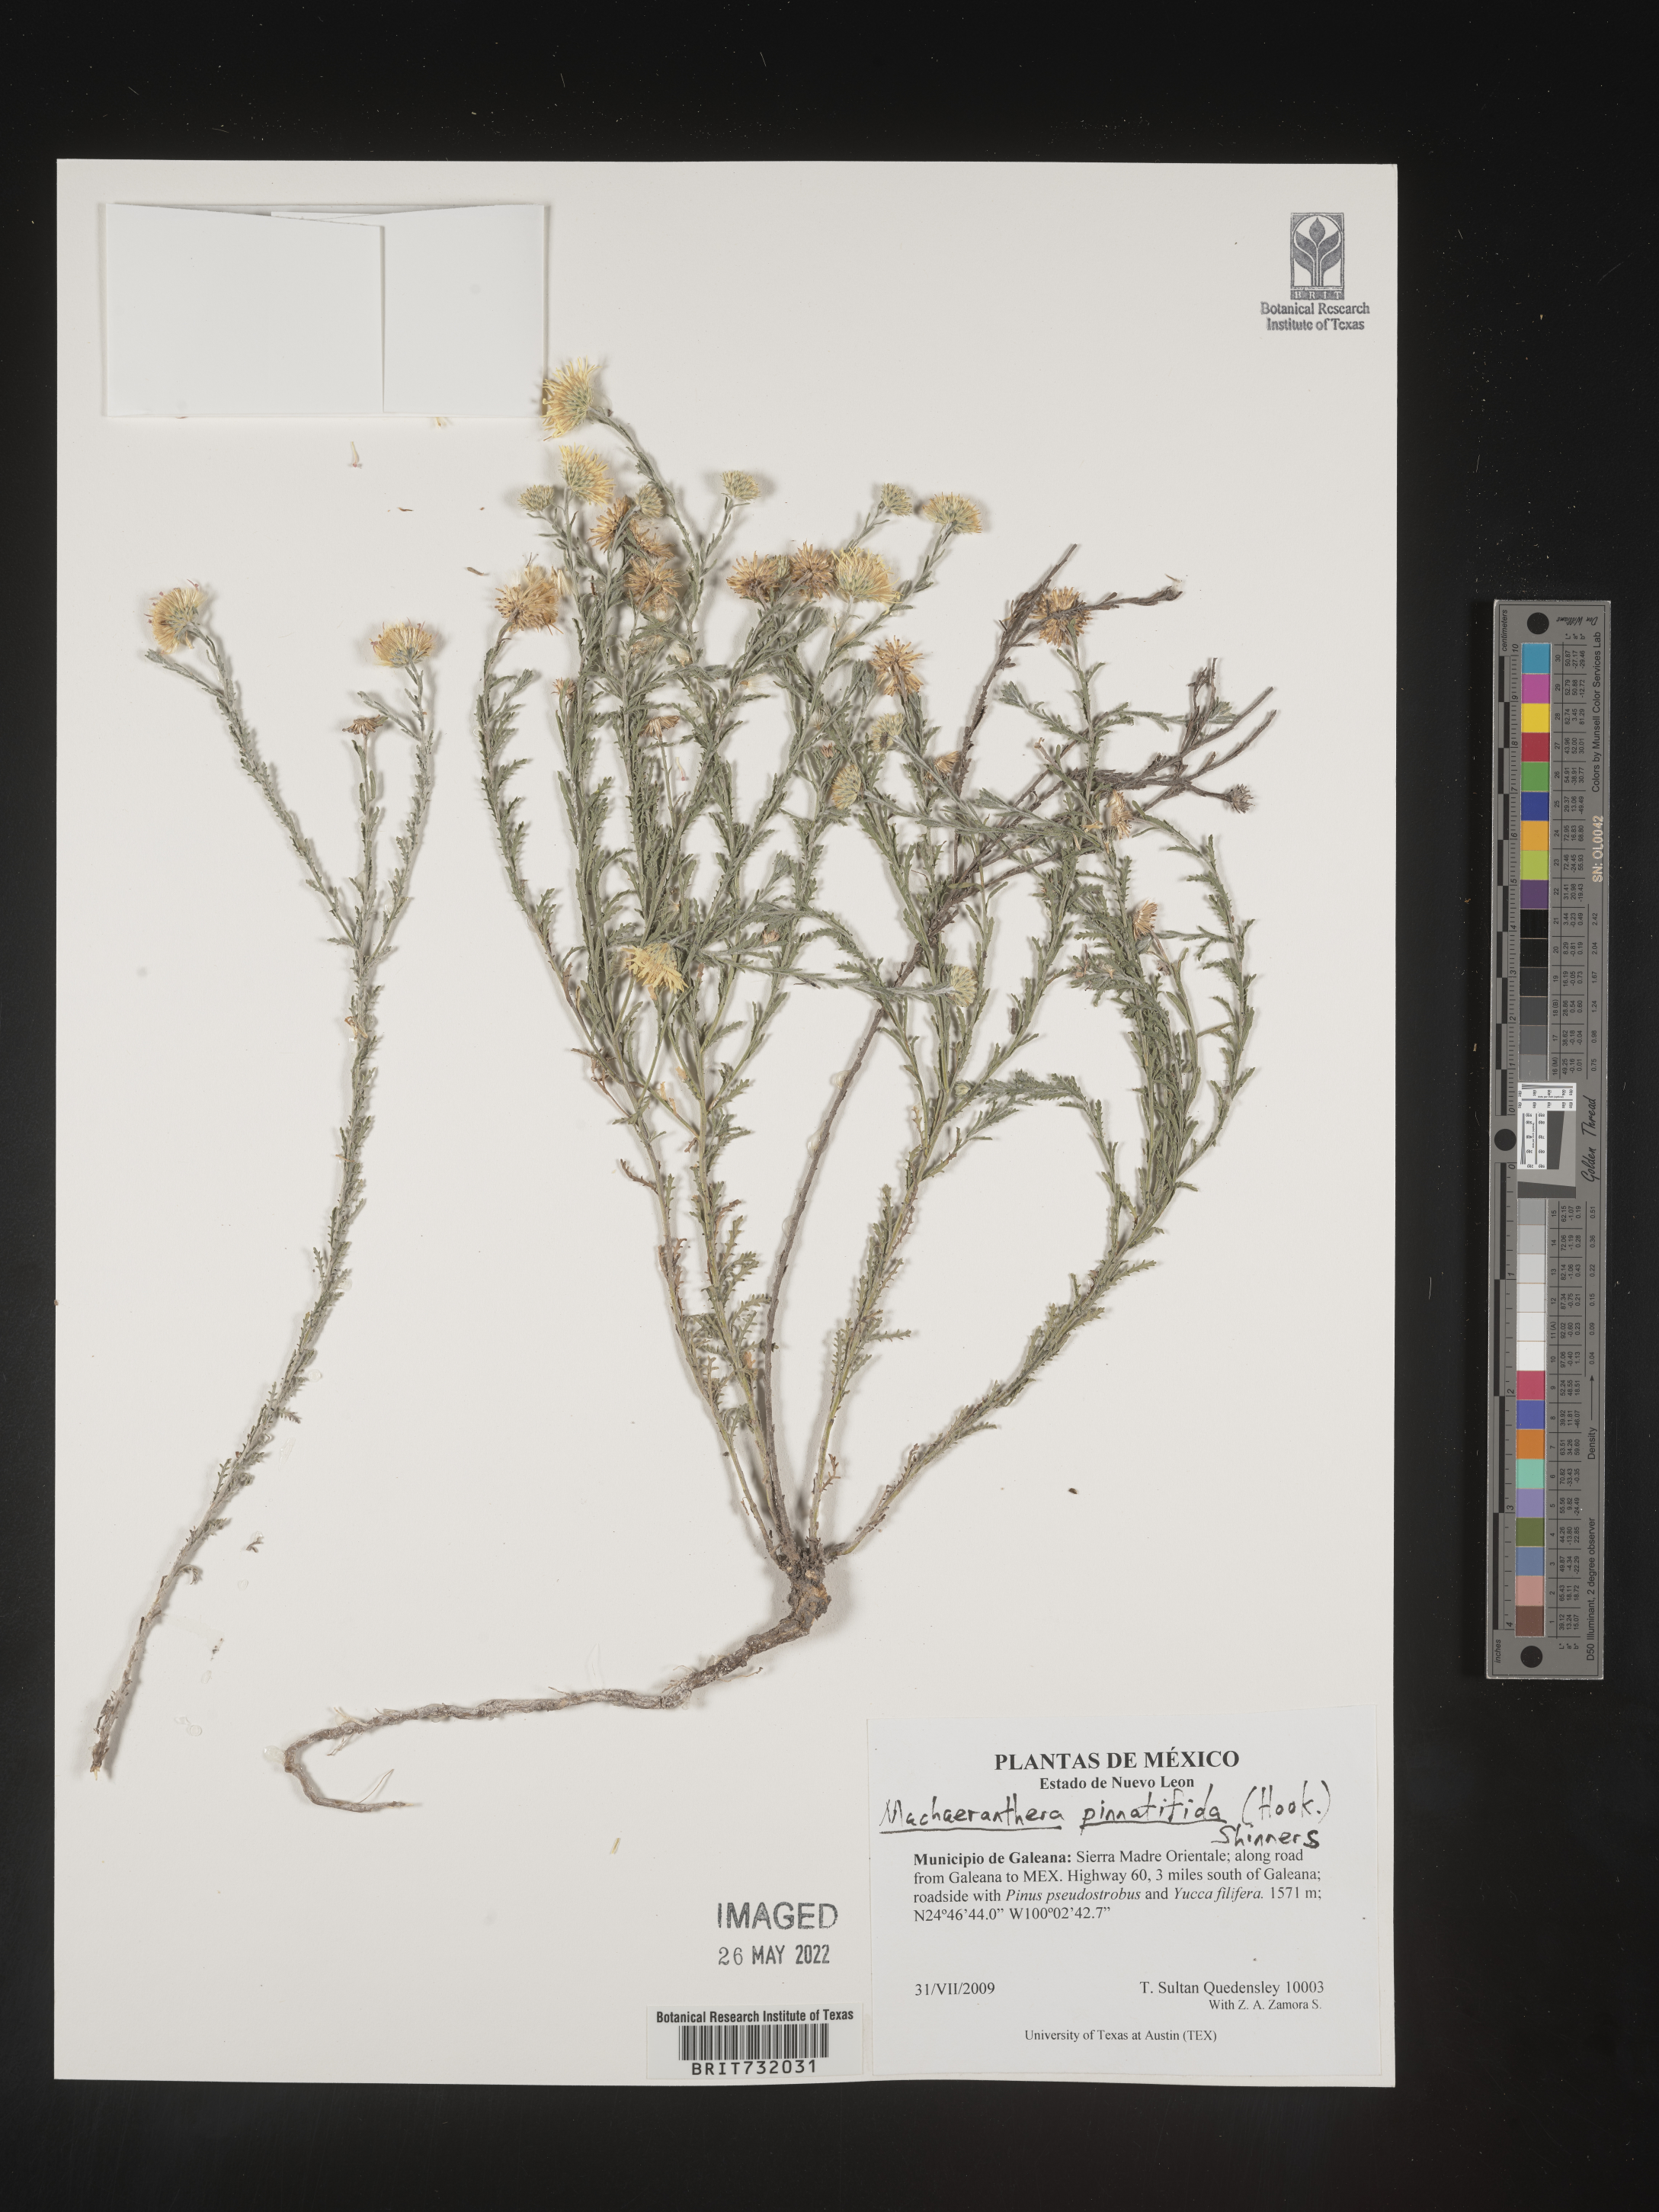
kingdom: Plantae
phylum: Tracheophyta
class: Magnoliopsida
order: Asterales
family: Asteraceae
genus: Xanthisma
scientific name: Xanthisma spinulosum
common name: Spiny goldenweed
